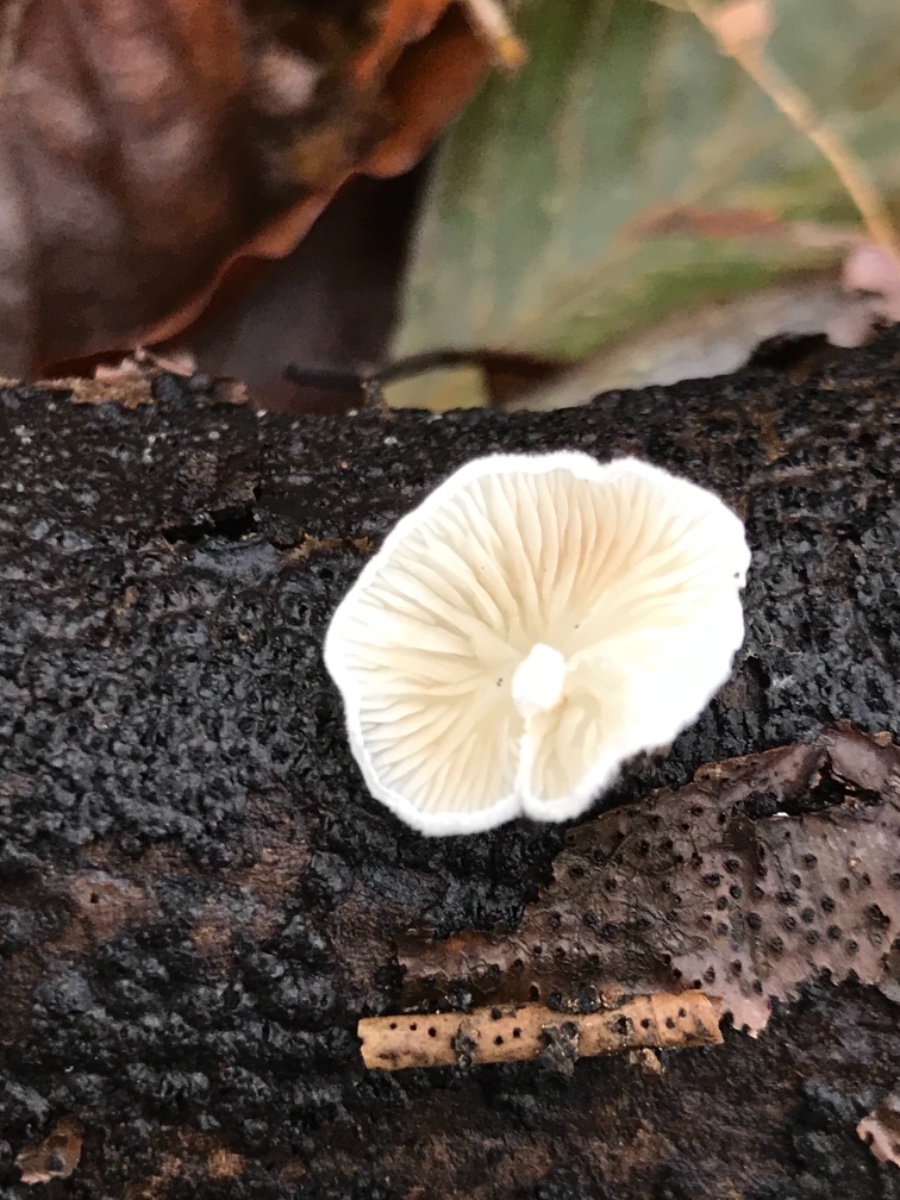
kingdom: Fungi
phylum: Basidiomycota
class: Agaricomycetes
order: Agaricales
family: Crepidotaceae
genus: Crepidotus
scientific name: Crepidotus
